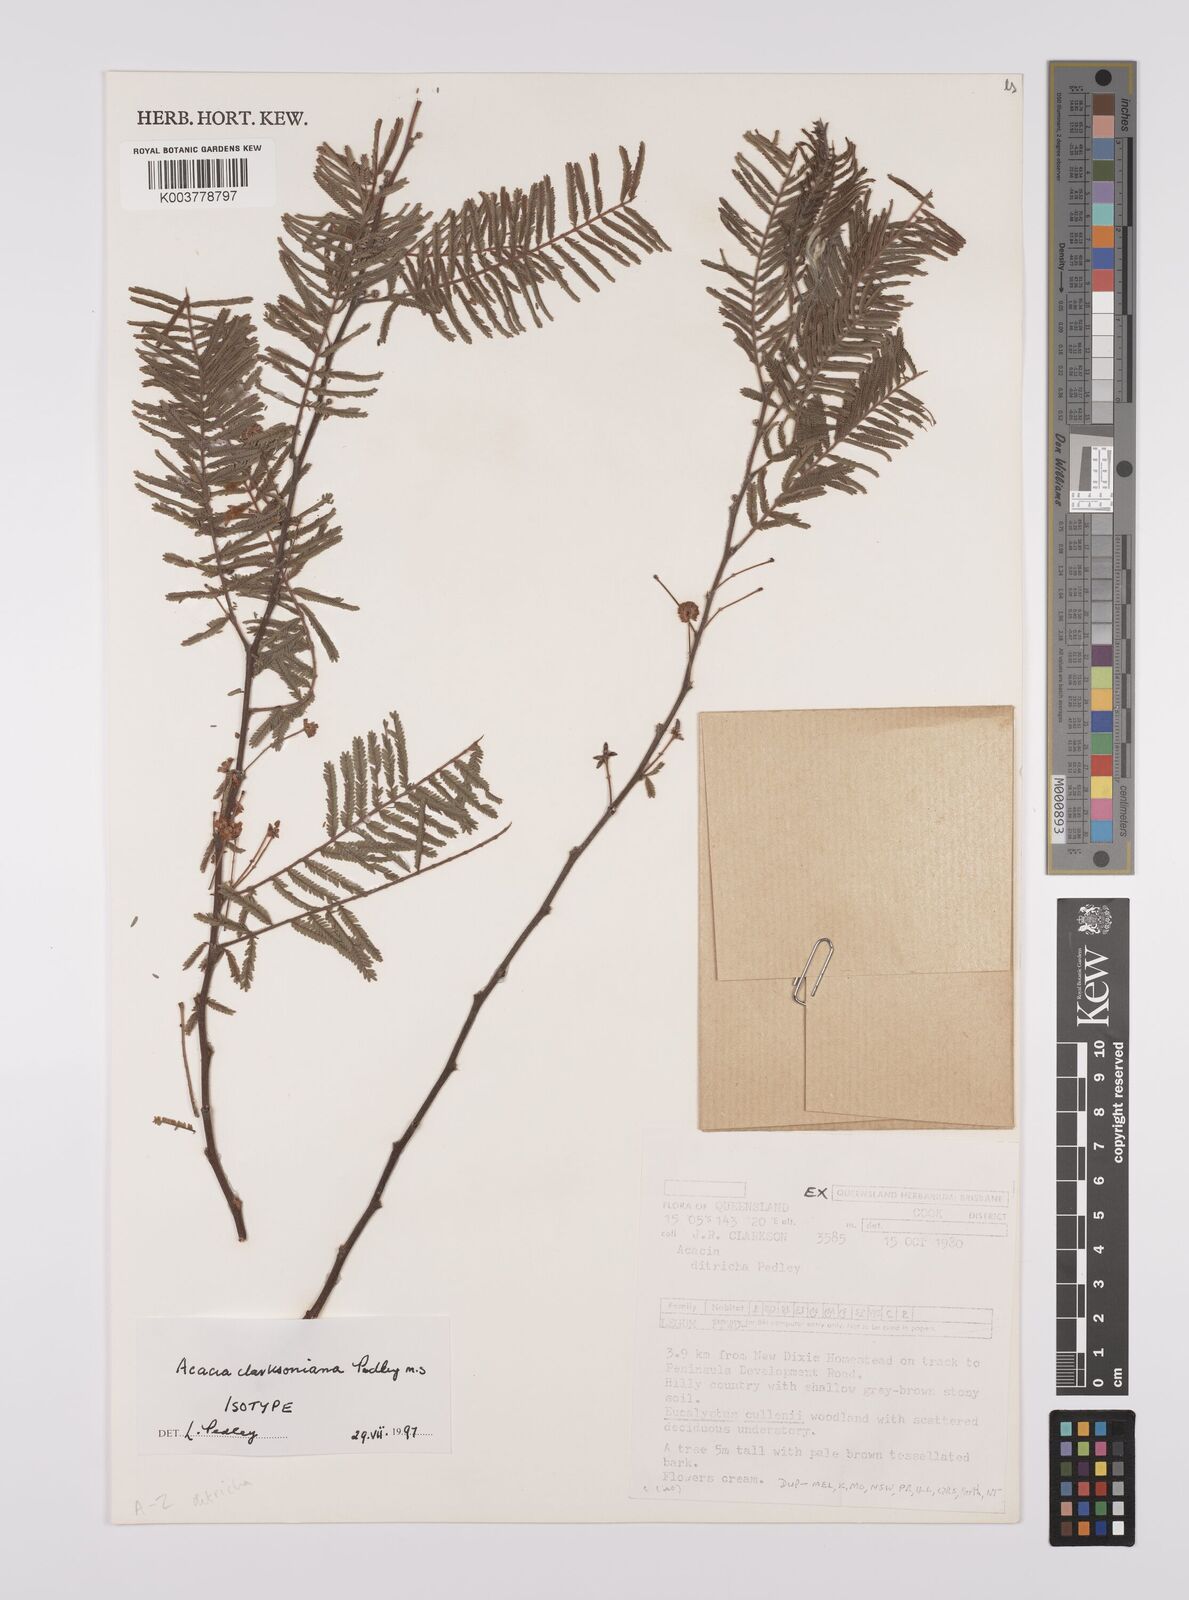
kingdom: Plantae
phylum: Tracheophyta
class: Magnoliopsida
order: Fabales
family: Fabaceae
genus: Vachellia
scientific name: Vachellia clarksoniana
